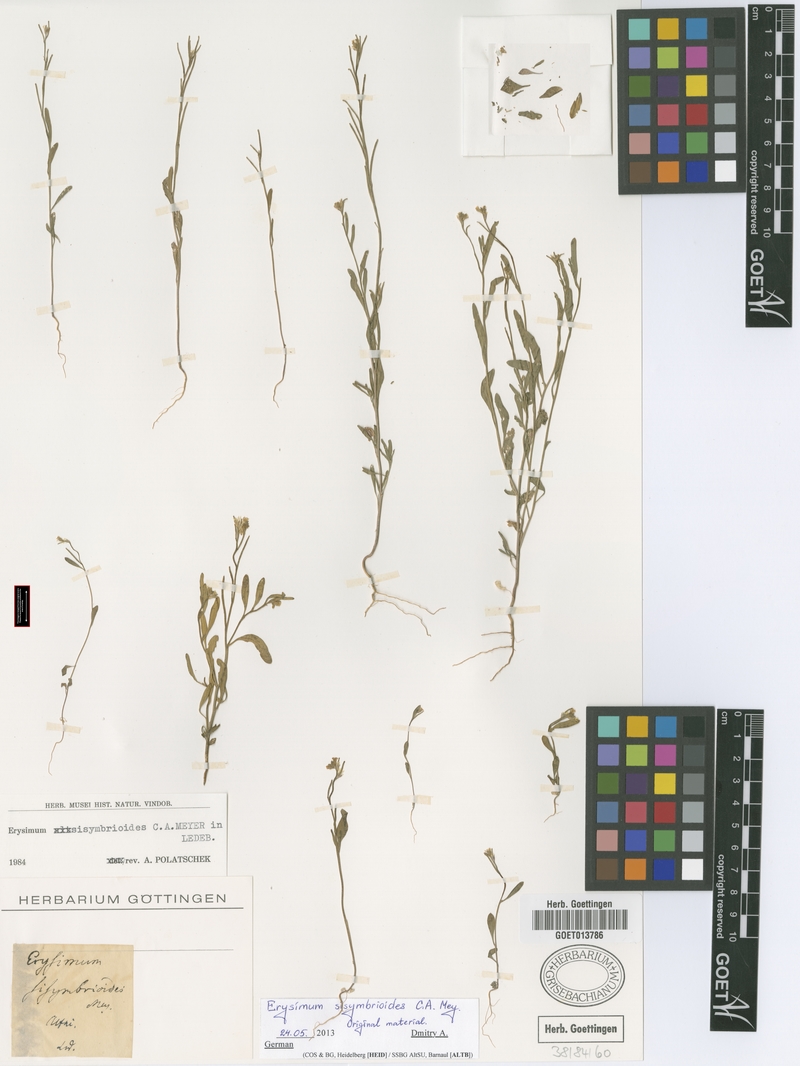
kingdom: Plantae
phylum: Tracheophyta
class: Magnoliopsida
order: Brassicales
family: Brassicaceae
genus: Erysimum
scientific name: Erysimum sisymbrioides
